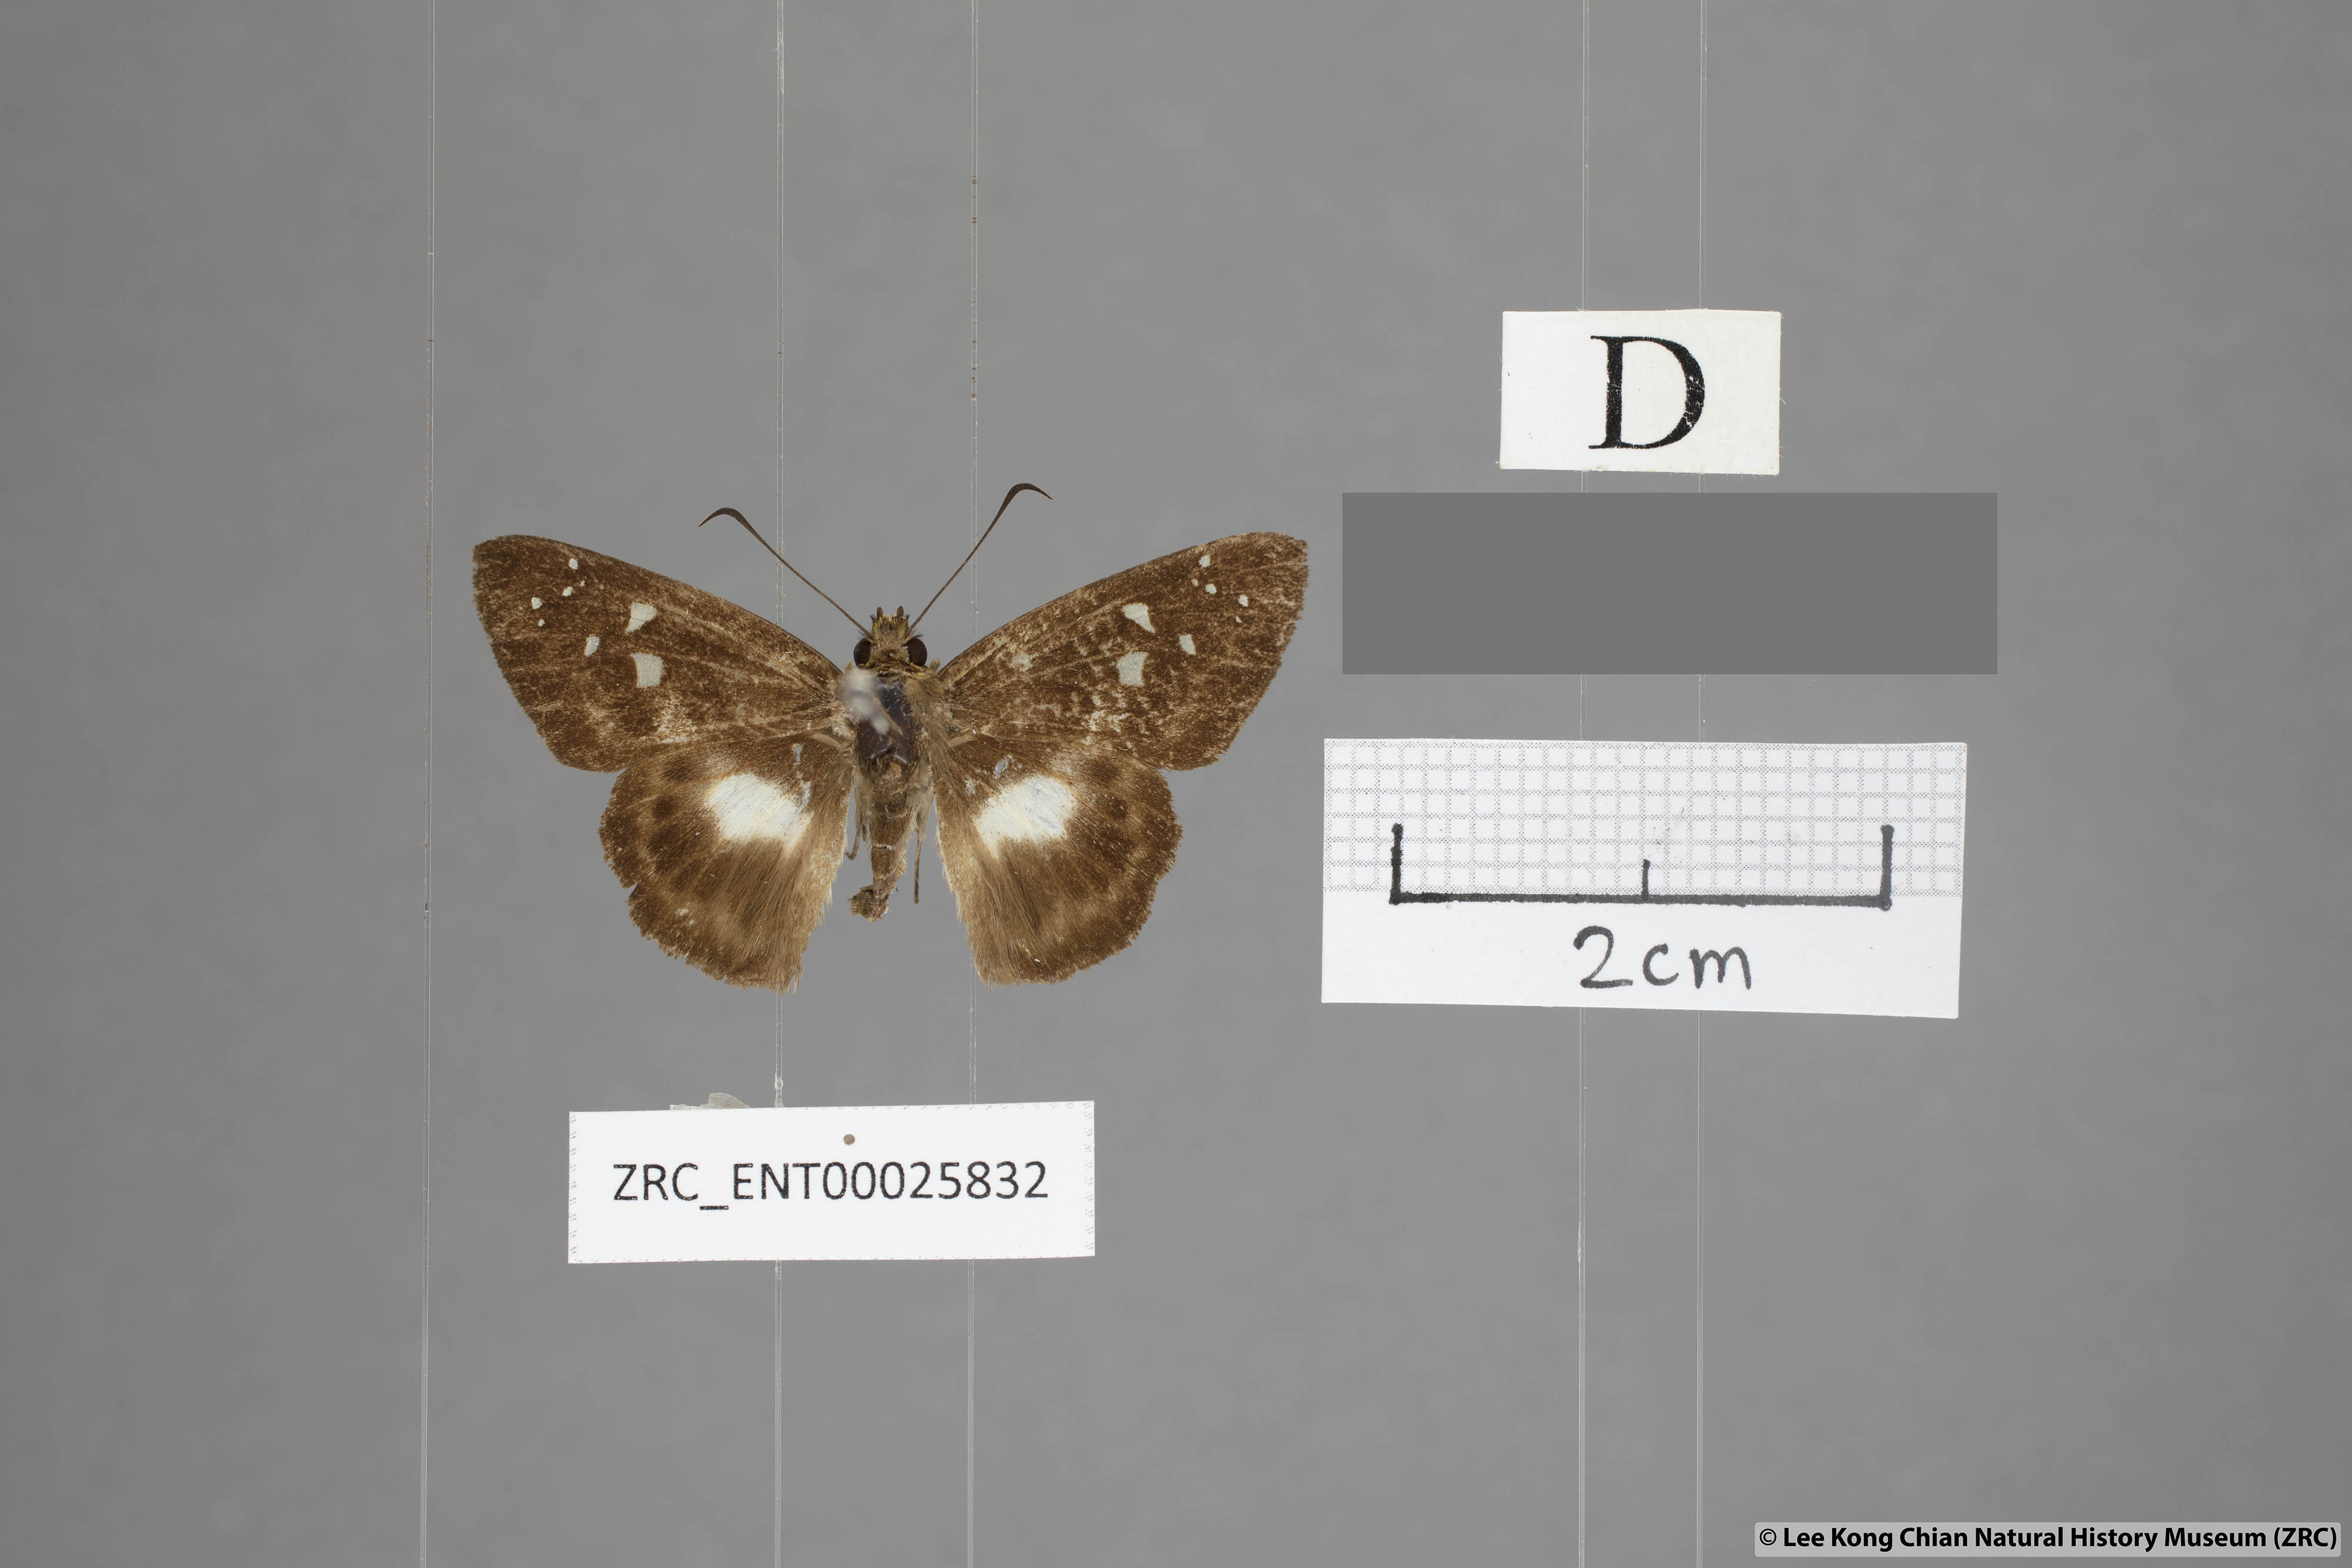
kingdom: Animalia
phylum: Arthropoda
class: Insecta
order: Lepidoptera
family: Hesperiidae
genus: Daimio
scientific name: Daimio
